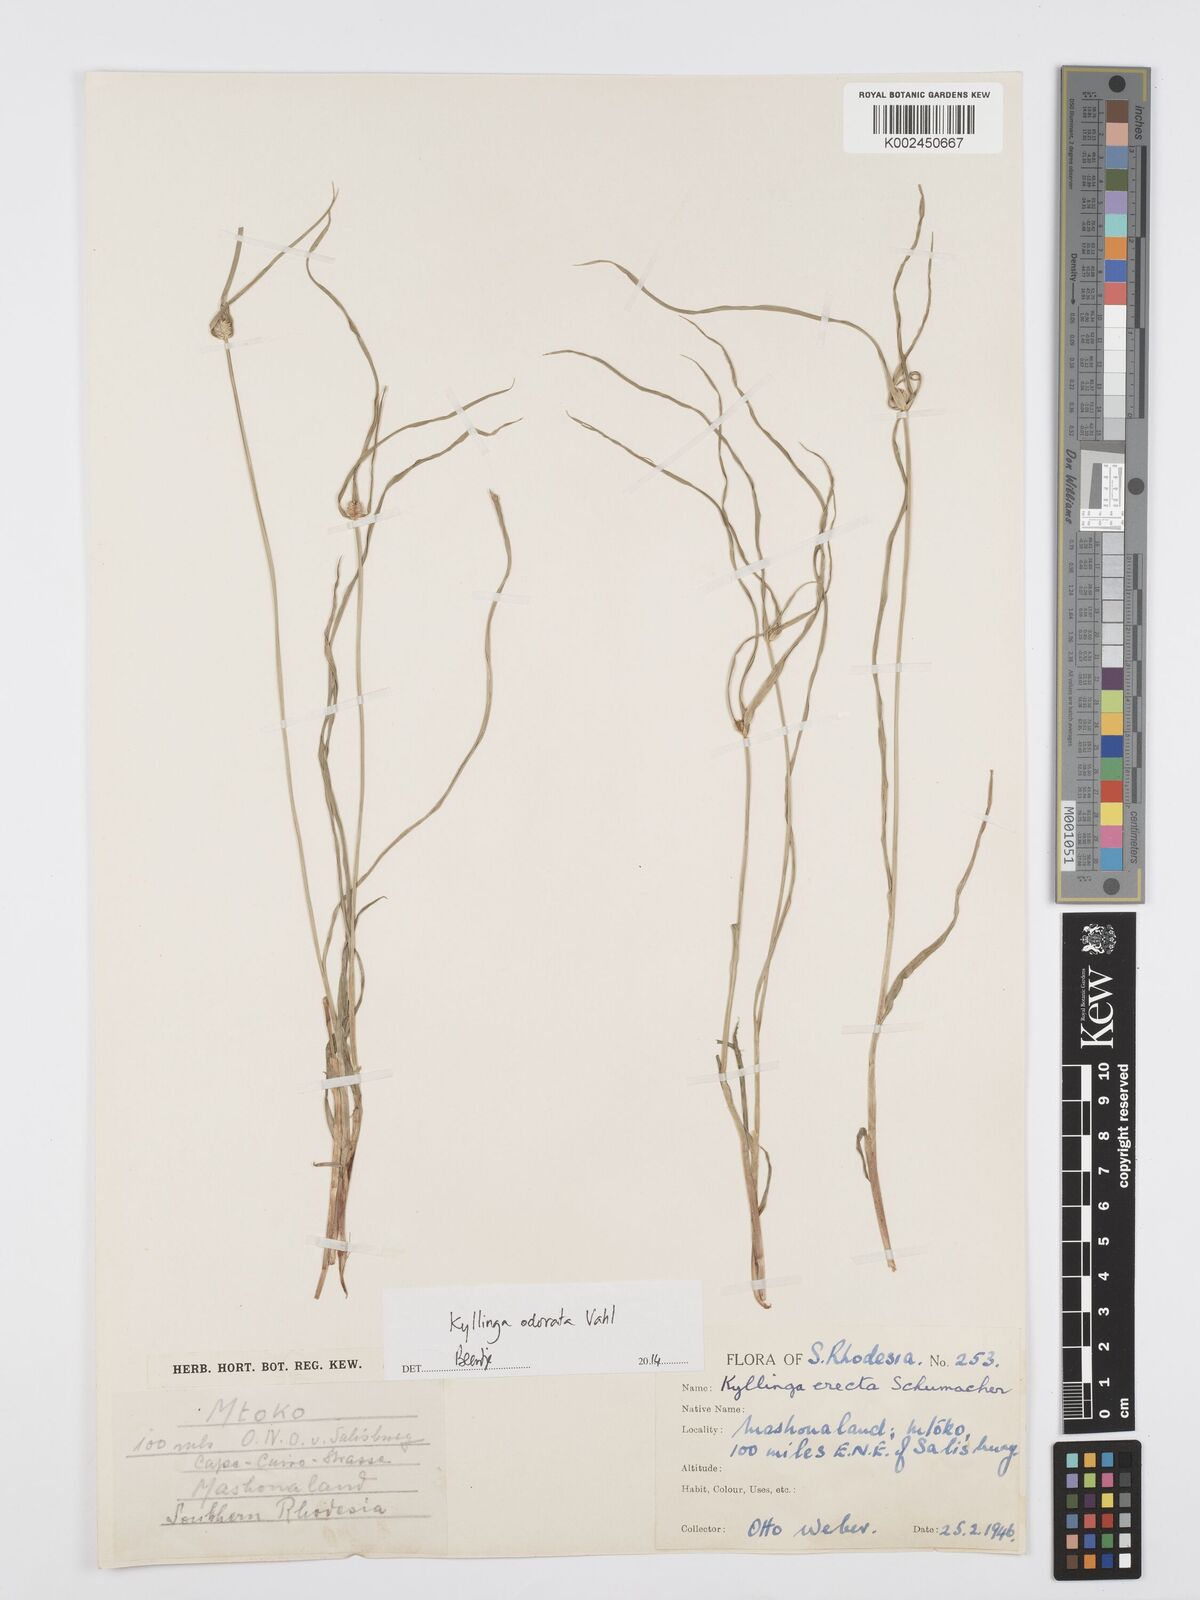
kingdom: Plantae
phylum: Tracheophyta
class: Liliopsida
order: Poales
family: Cyperaceae
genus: Cyperus
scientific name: Cyperus
